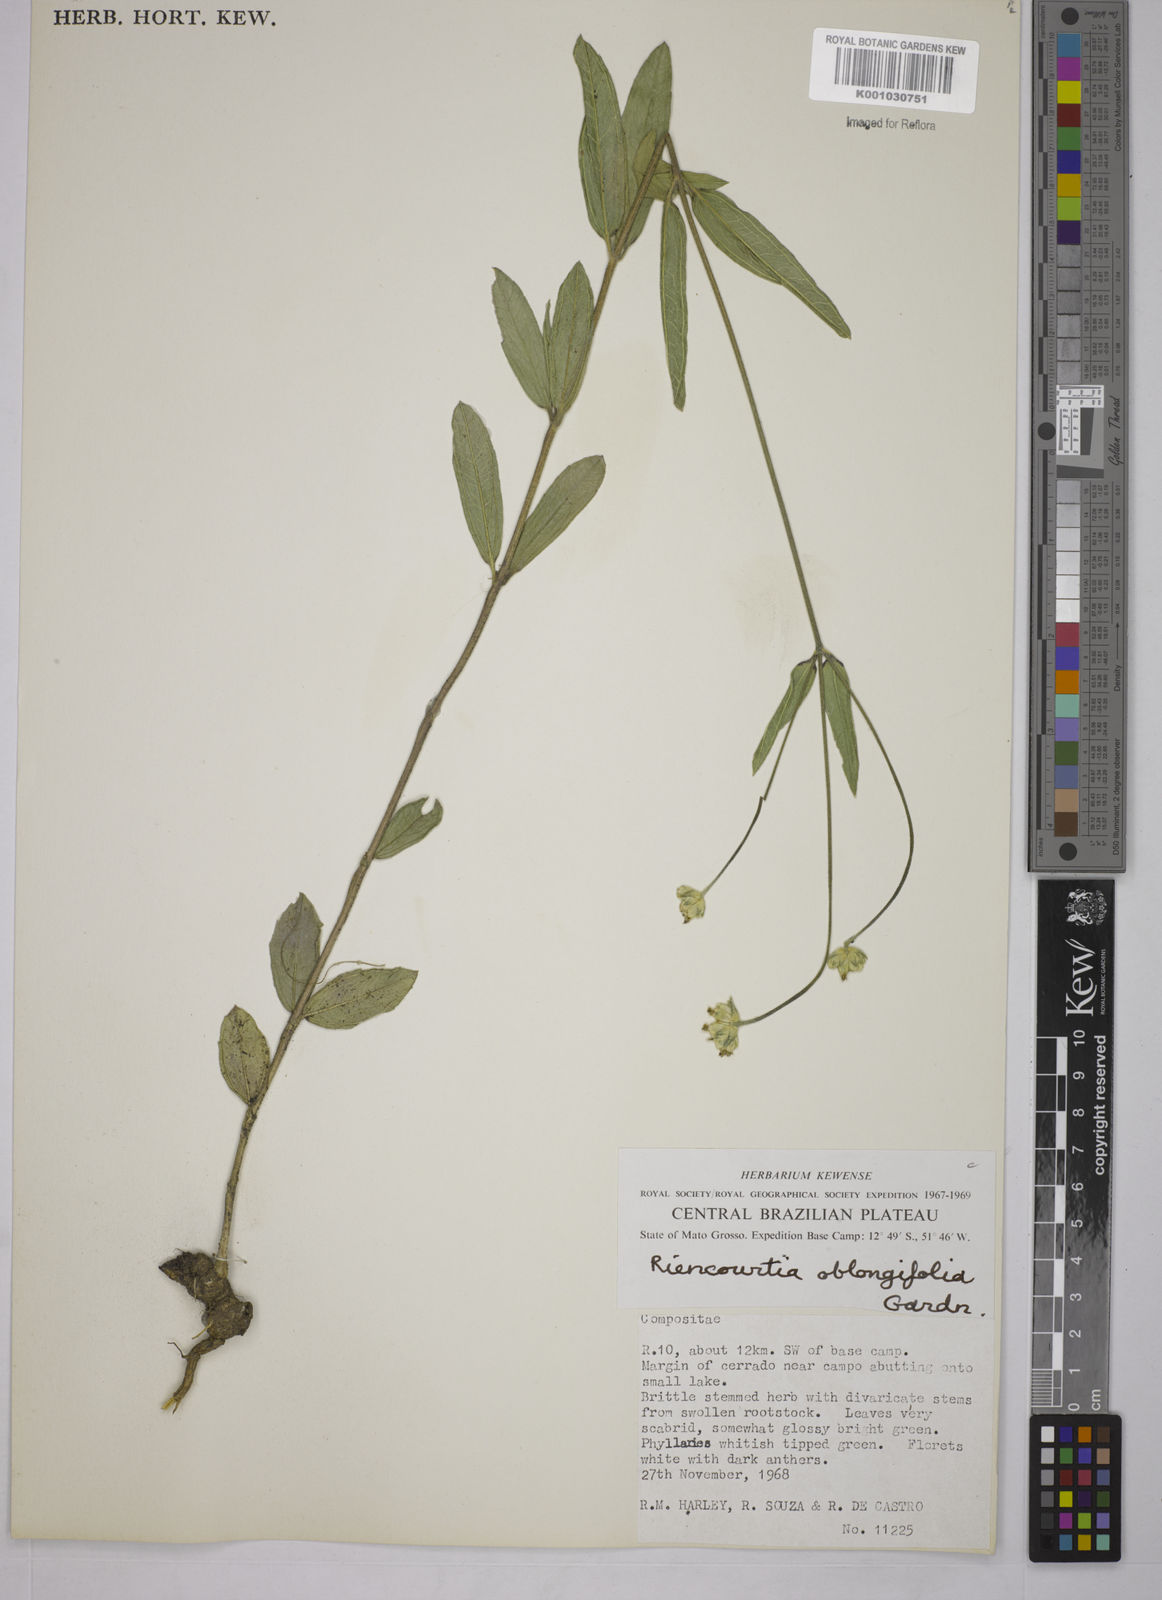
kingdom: Plantae
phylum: Tracheophyta
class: Magnoliopsida
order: Asterales
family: Asteraceae
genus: Riencourtia
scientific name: Riencourtia oblongifolia
